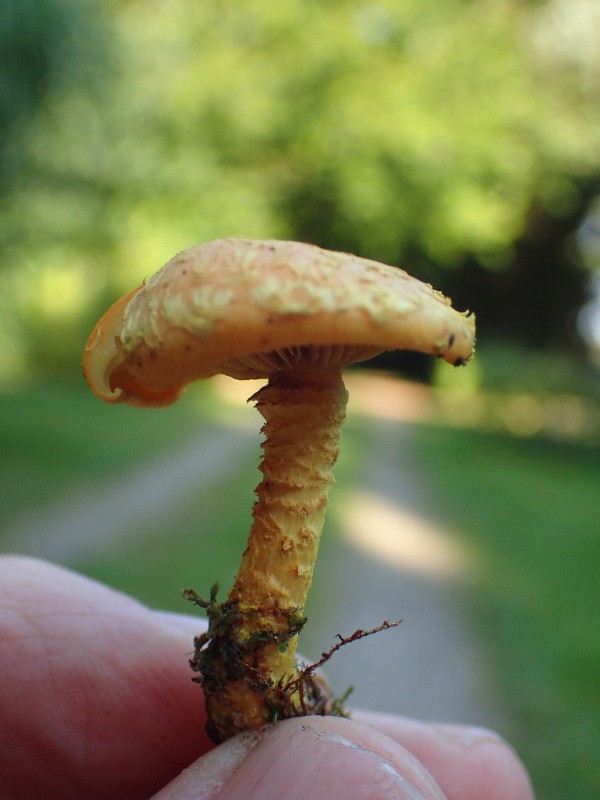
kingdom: Fungi
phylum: Basidiomycota
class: Agaricomycetes
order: Agaricales
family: Strophariaceae
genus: Pholiota
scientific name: Pholiota flammans
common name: flamme-skælhat
